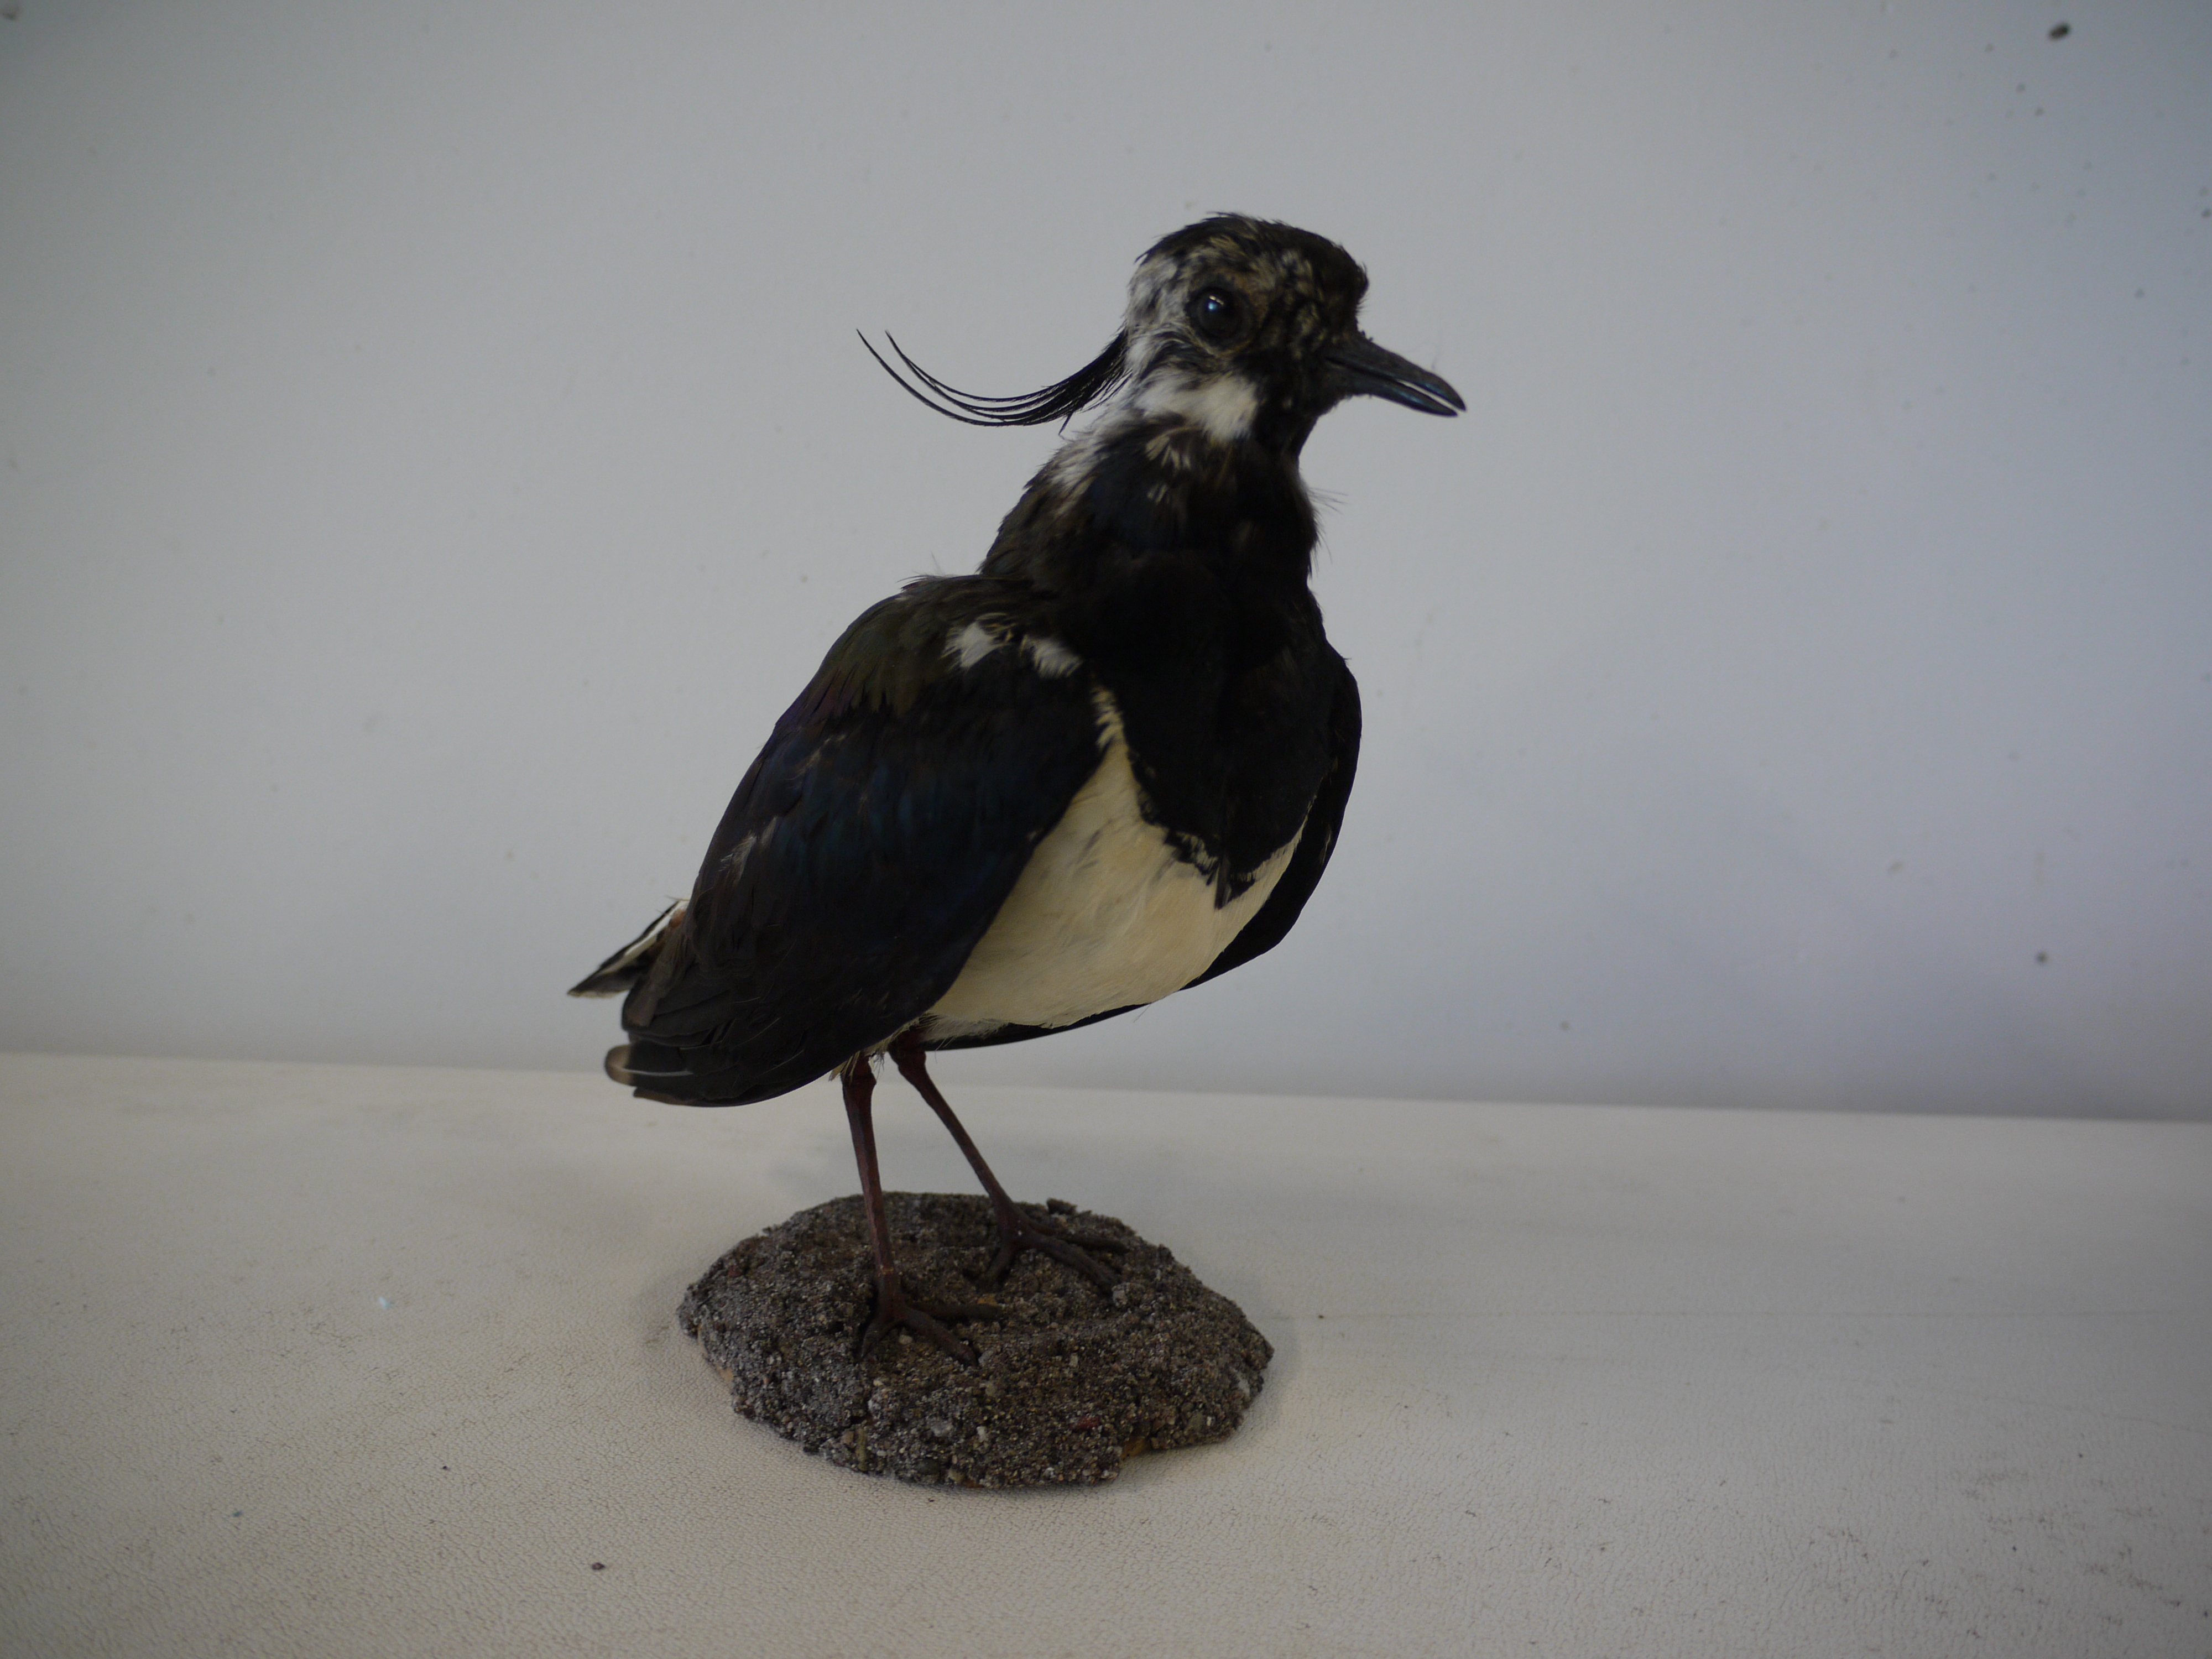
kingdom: Animalia
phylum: Chordata
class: Aves
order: Charadriiformes
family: Charadriidae
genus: Vanellus
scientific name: Vanellus vanellus
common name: Northern lapwing
